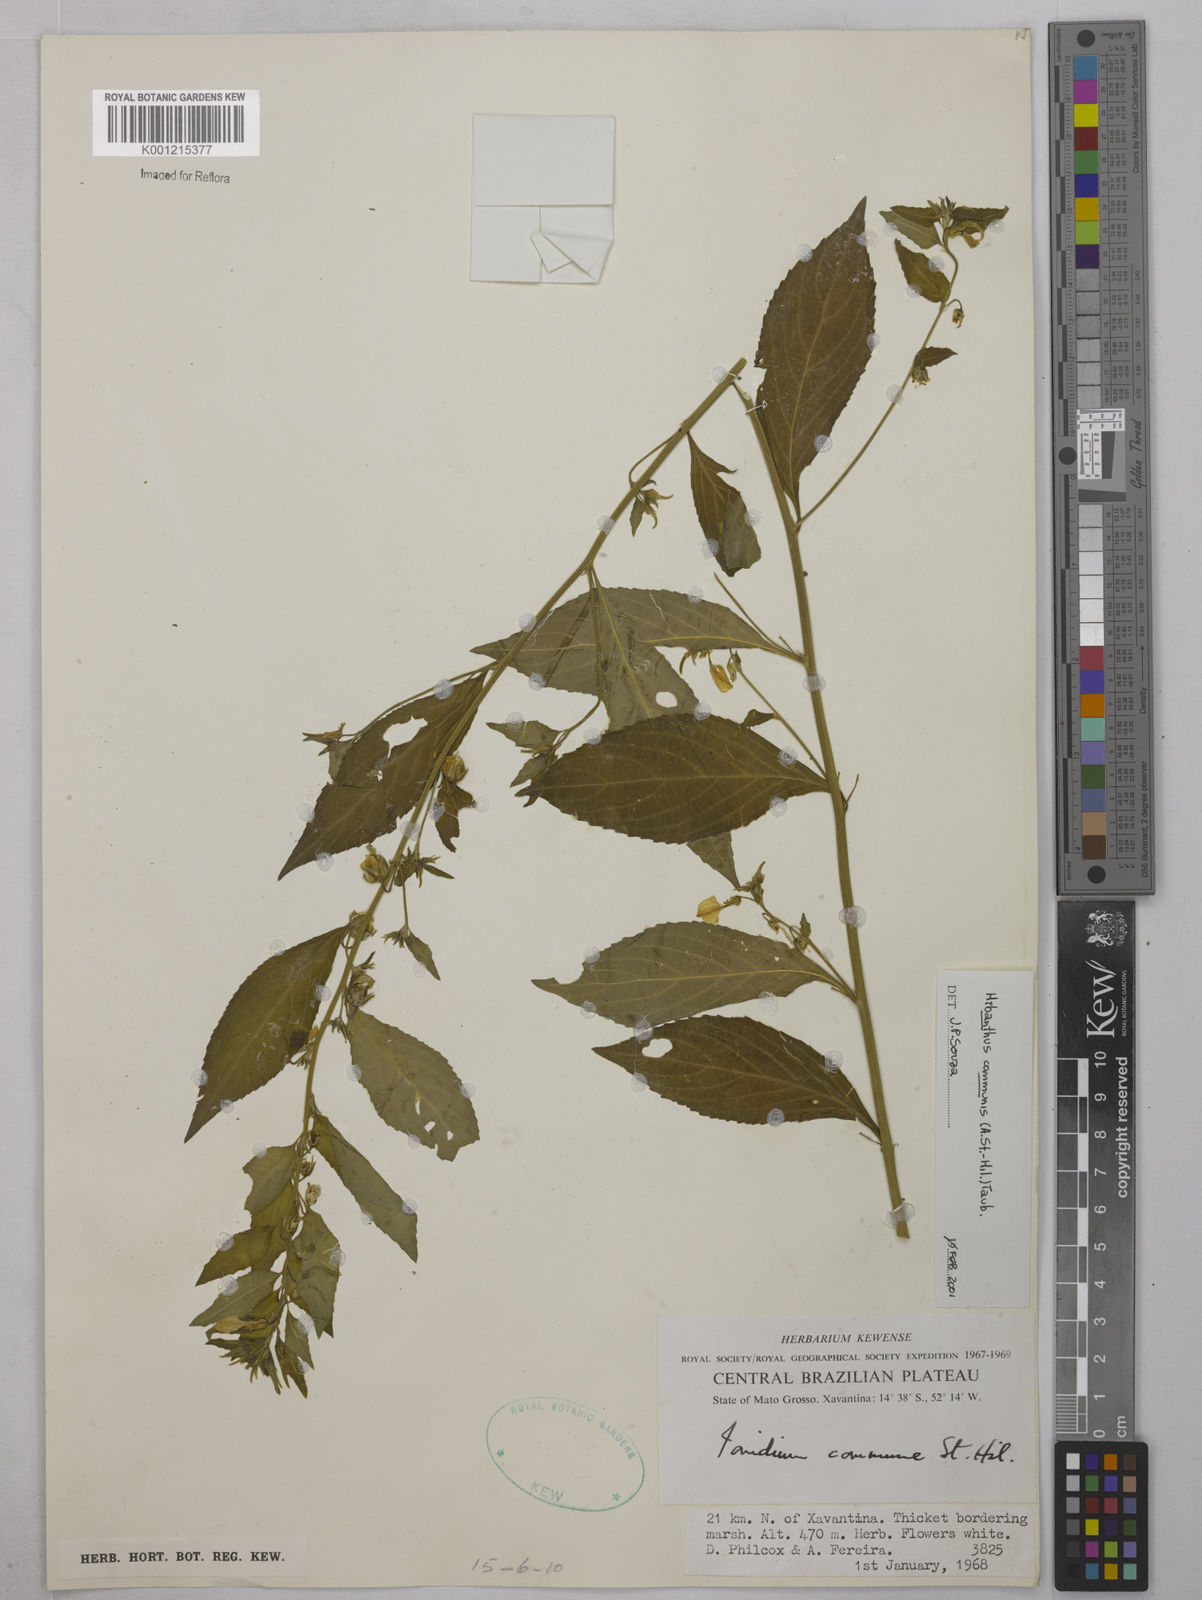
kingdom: Plantae
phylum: Tracheophyta
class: Magnoliopsida
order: Malpighiales
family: Violaceae
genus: Pombalia
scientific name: Pombalia communis
